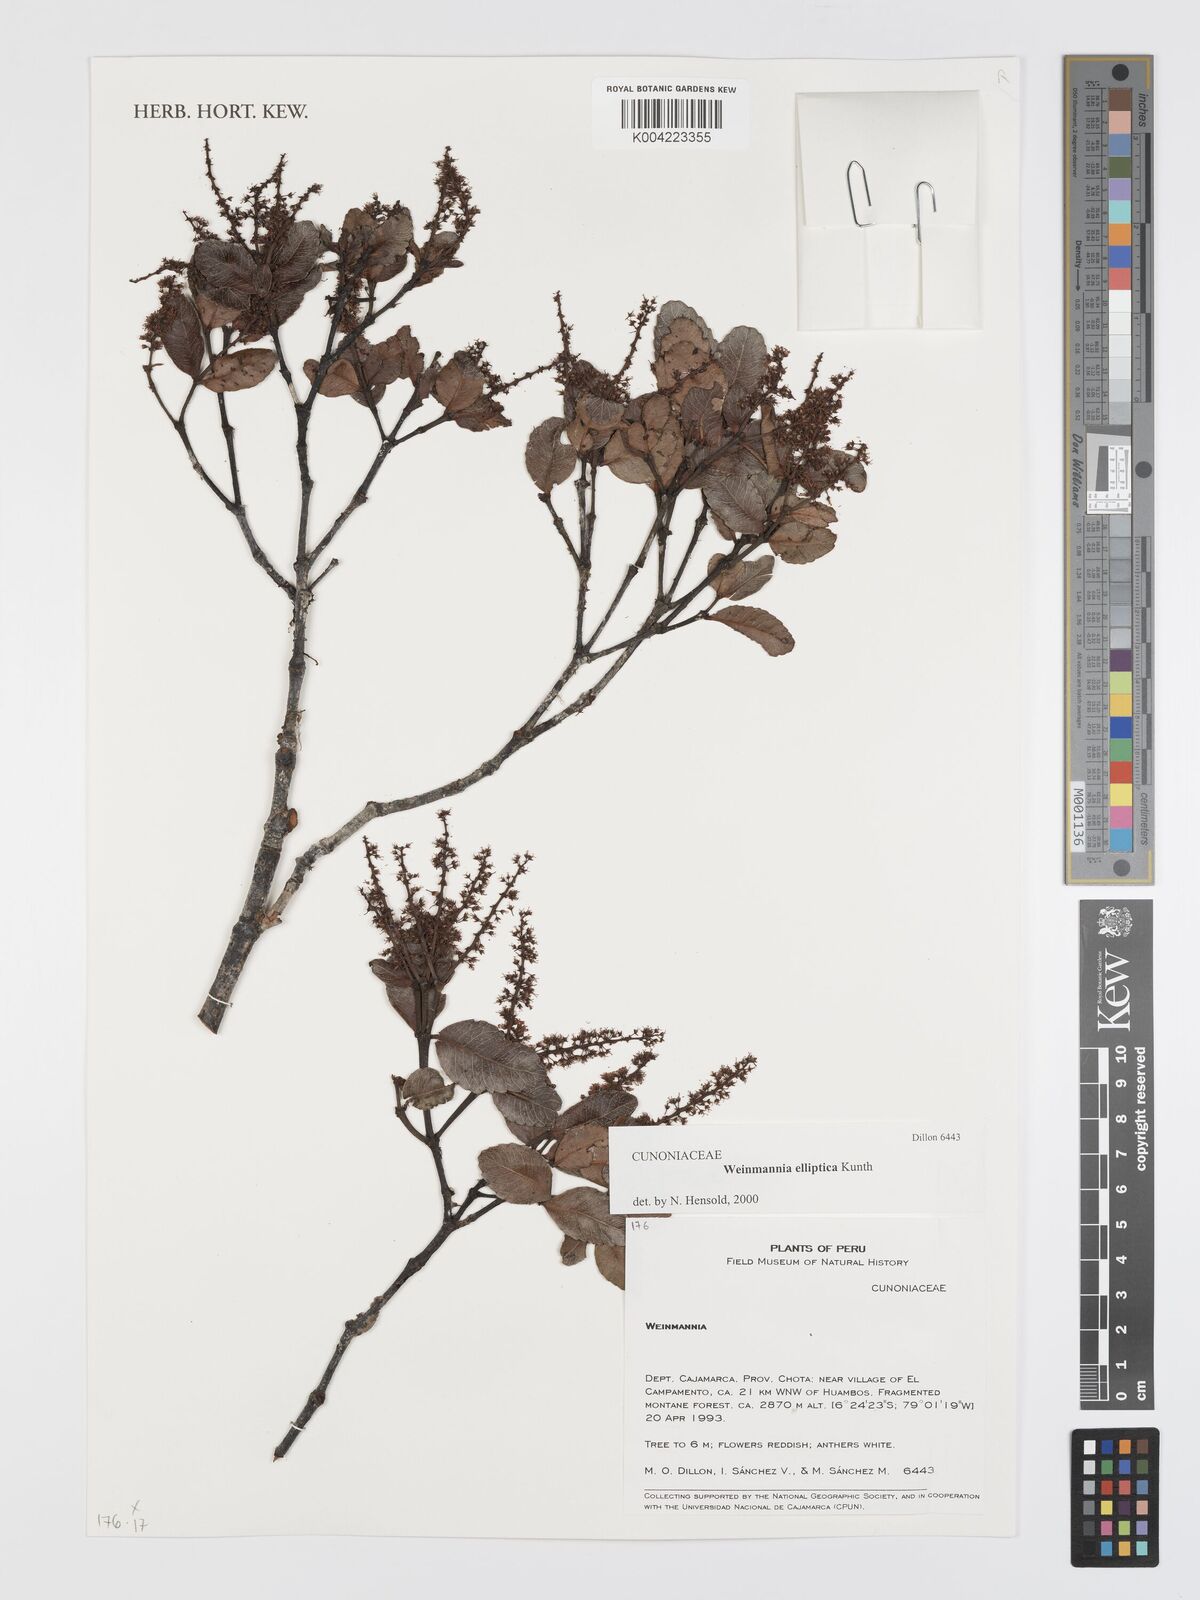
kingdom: Plantae
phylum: Tracheophyta
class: Magnoliopsida
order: Oxalidales
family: Cunoniaceae
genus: Weinmannia
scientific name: Weinmannia elliptica
